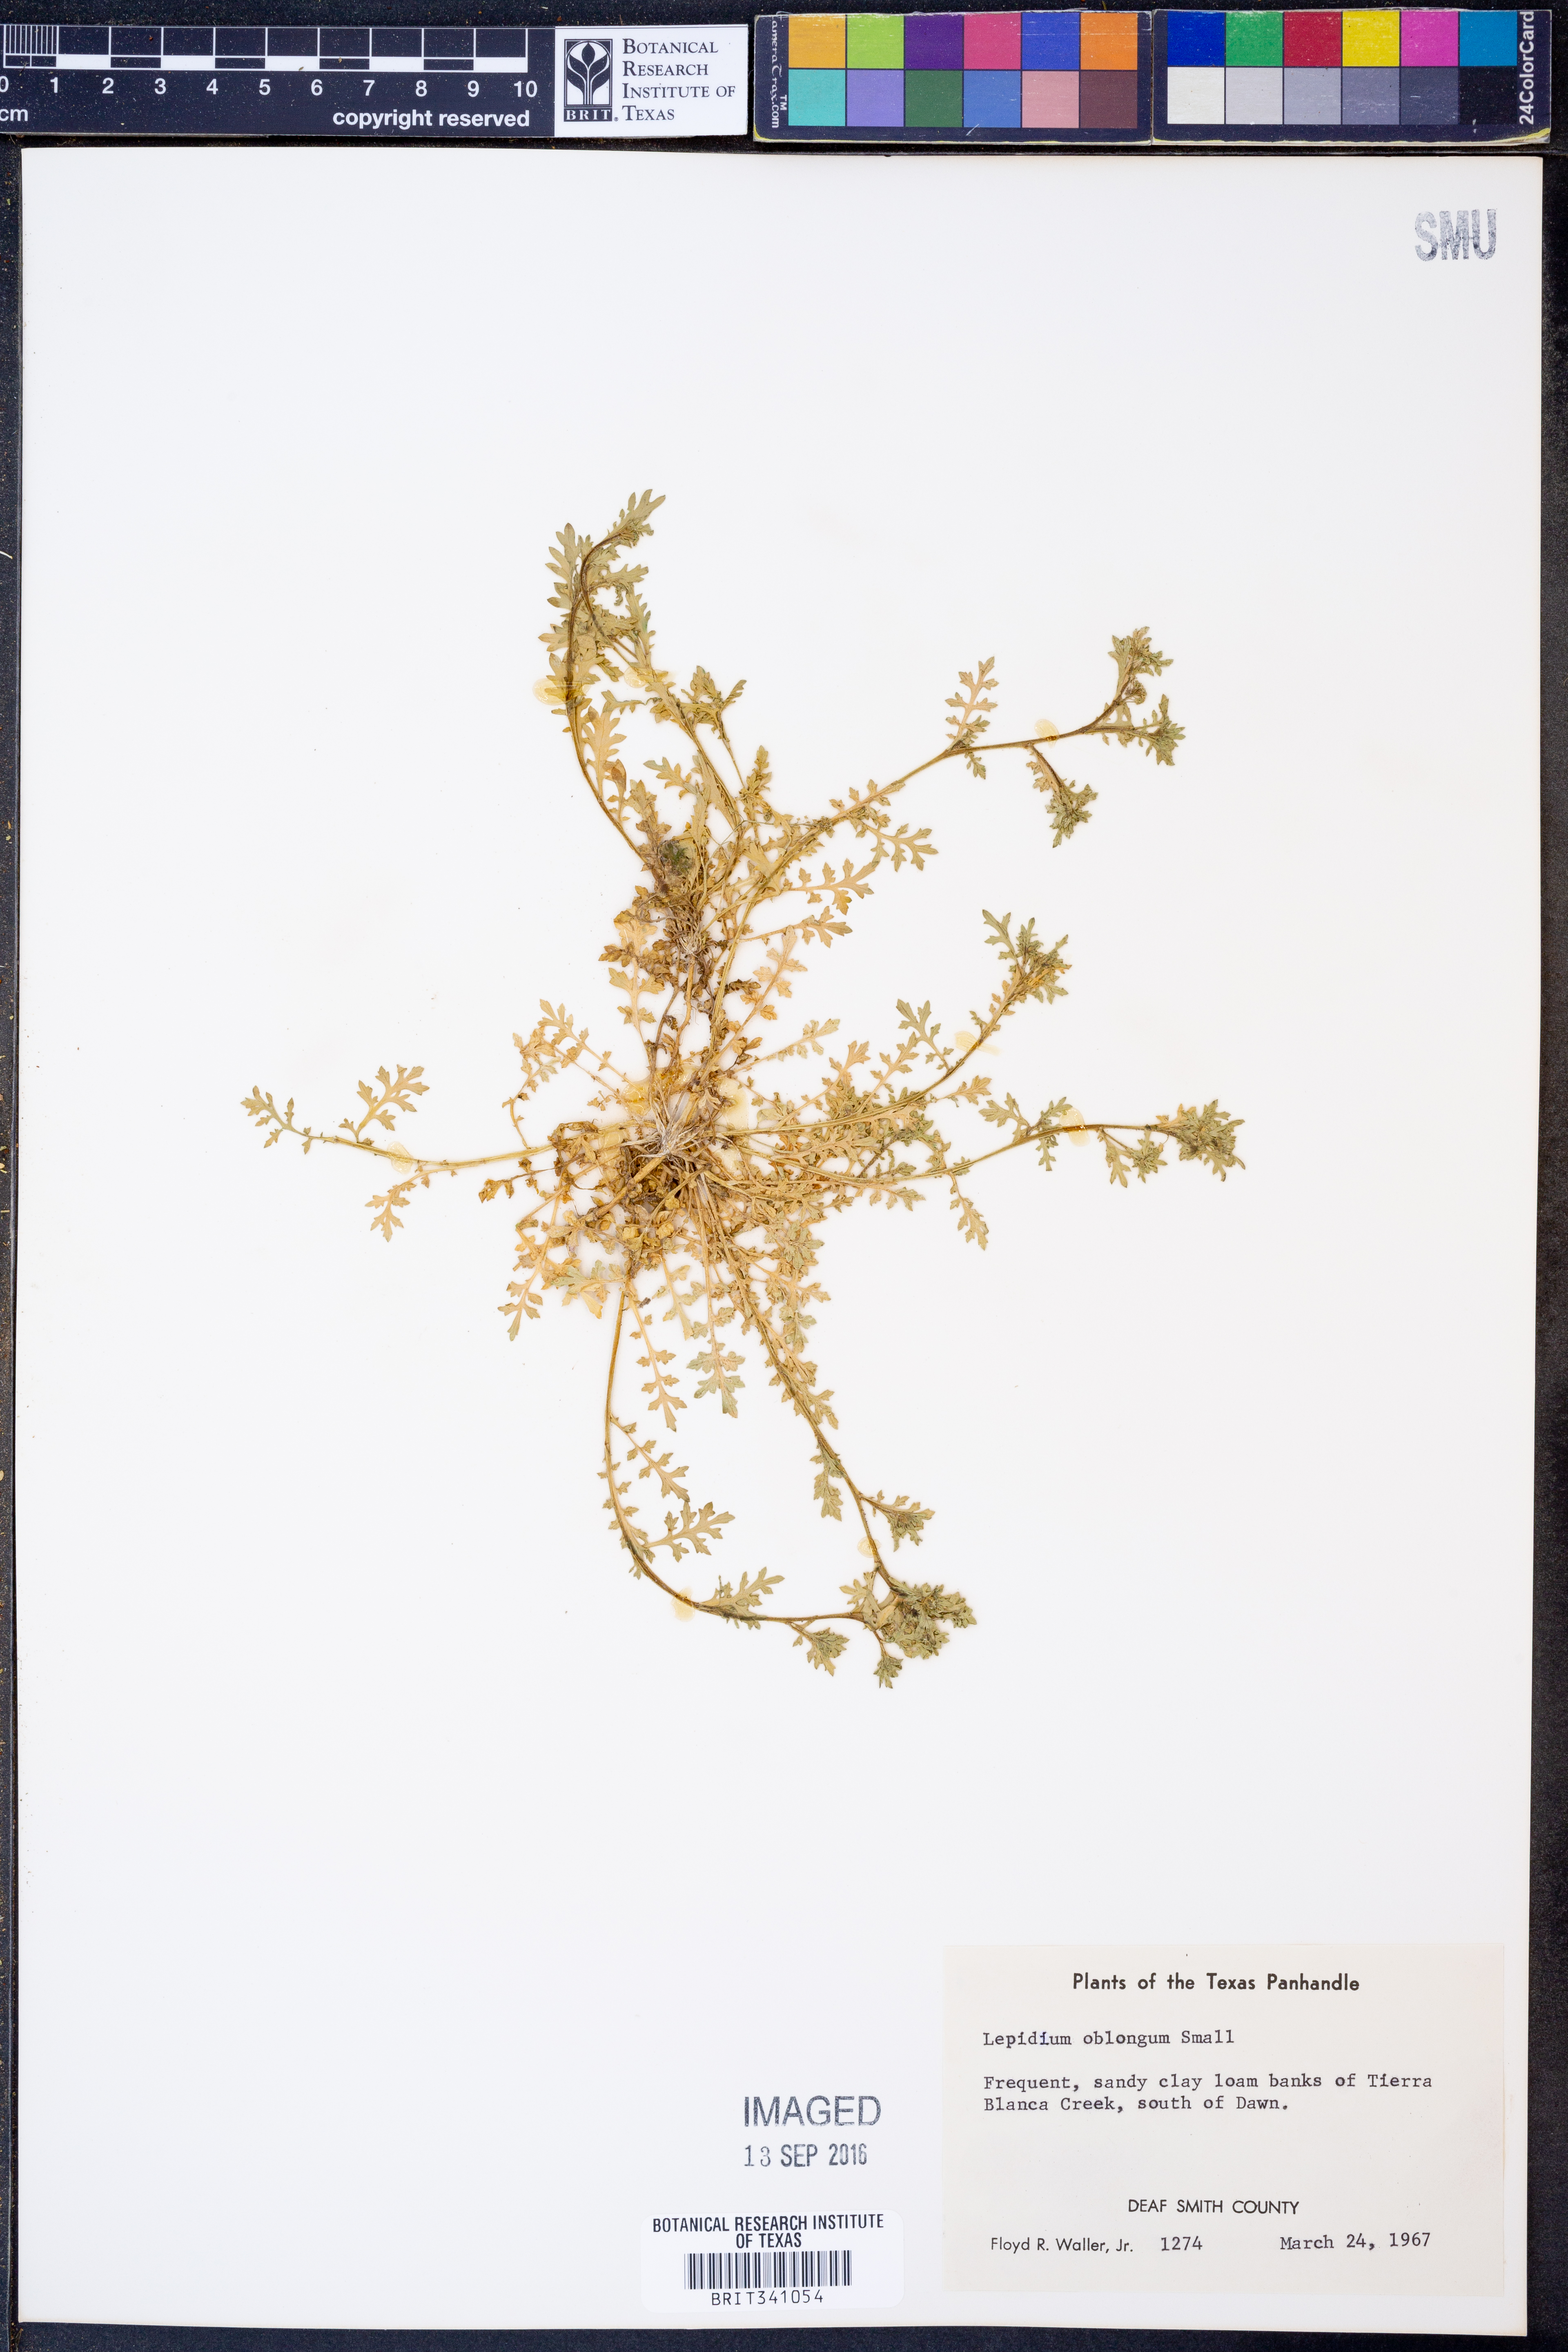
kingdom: Plantae
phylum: Tracheophyta
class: Magnoliopsida
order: Brassicales
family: Brassicaceae
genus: Lepidium
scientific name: Lepidium oblongum
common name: Veiny pepperweed
